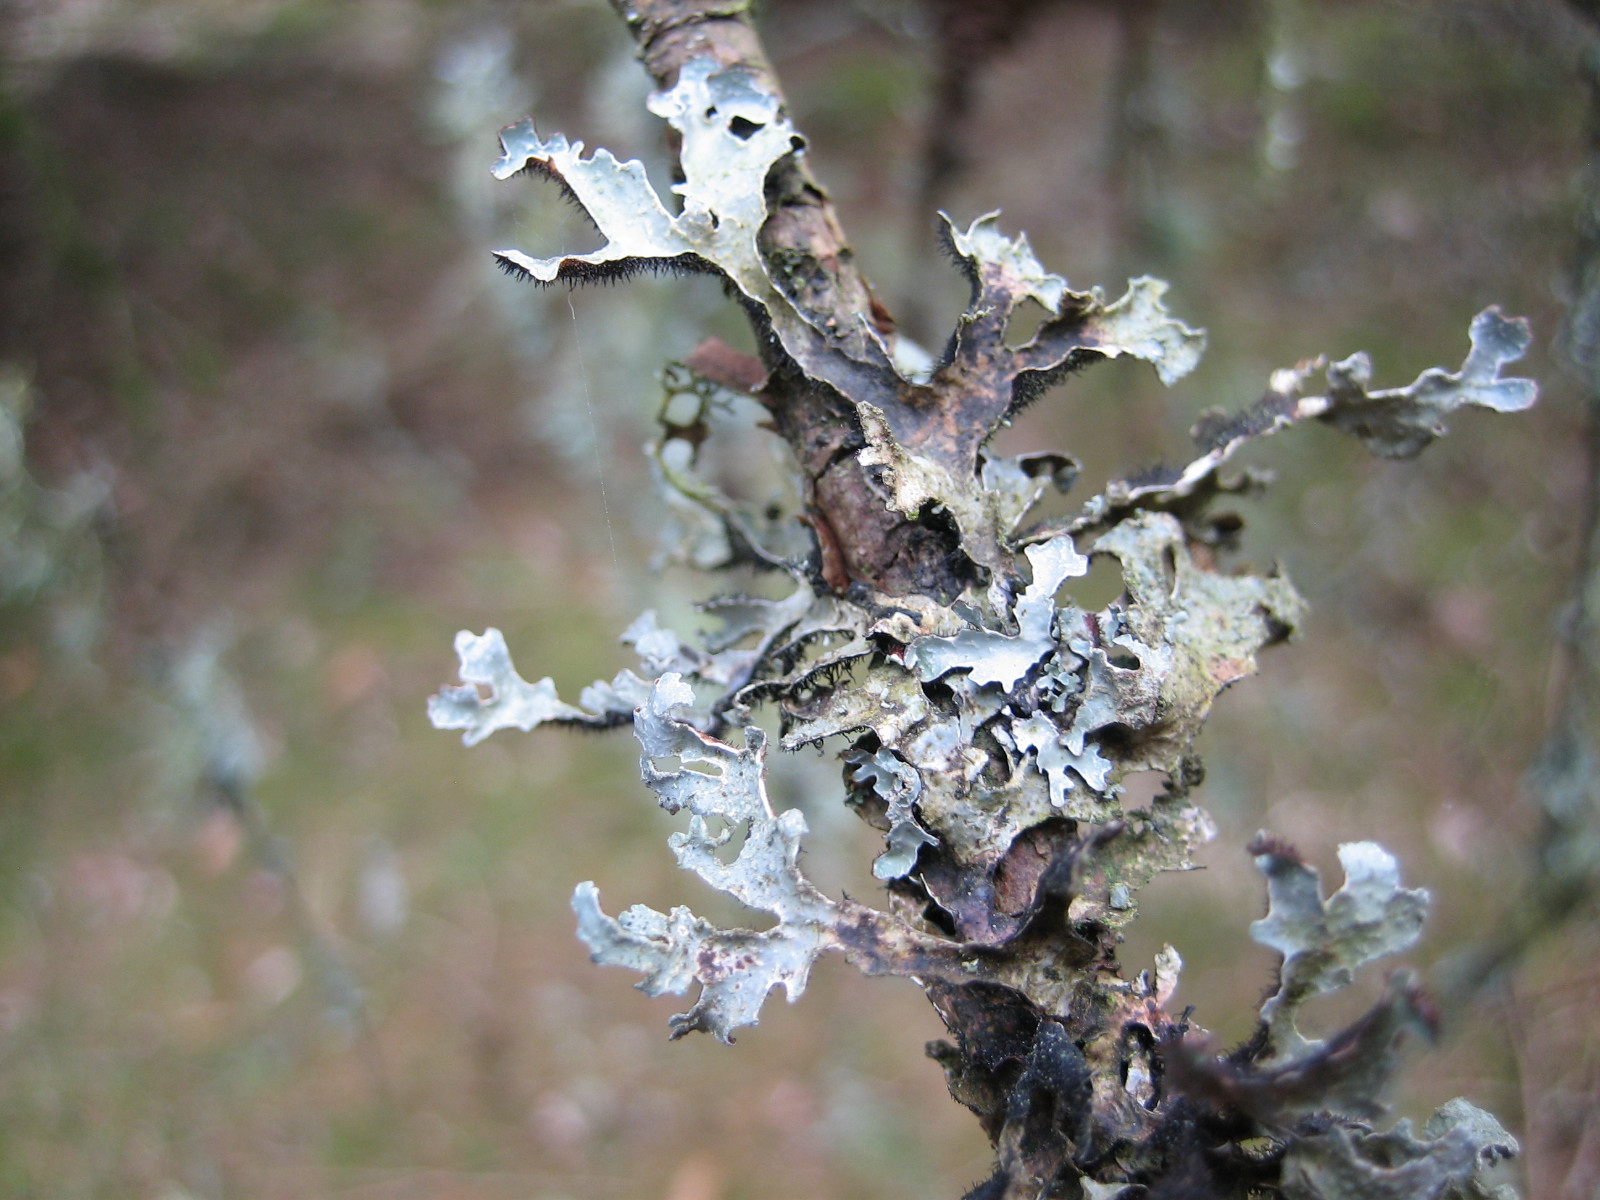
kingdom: Fungi
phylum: Ascomycota
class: Lecanoromycetes
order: Lecanorales
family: Parmeliaceae
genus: Parmelia
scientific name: Parmelia sulcata
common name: rynket skållav
